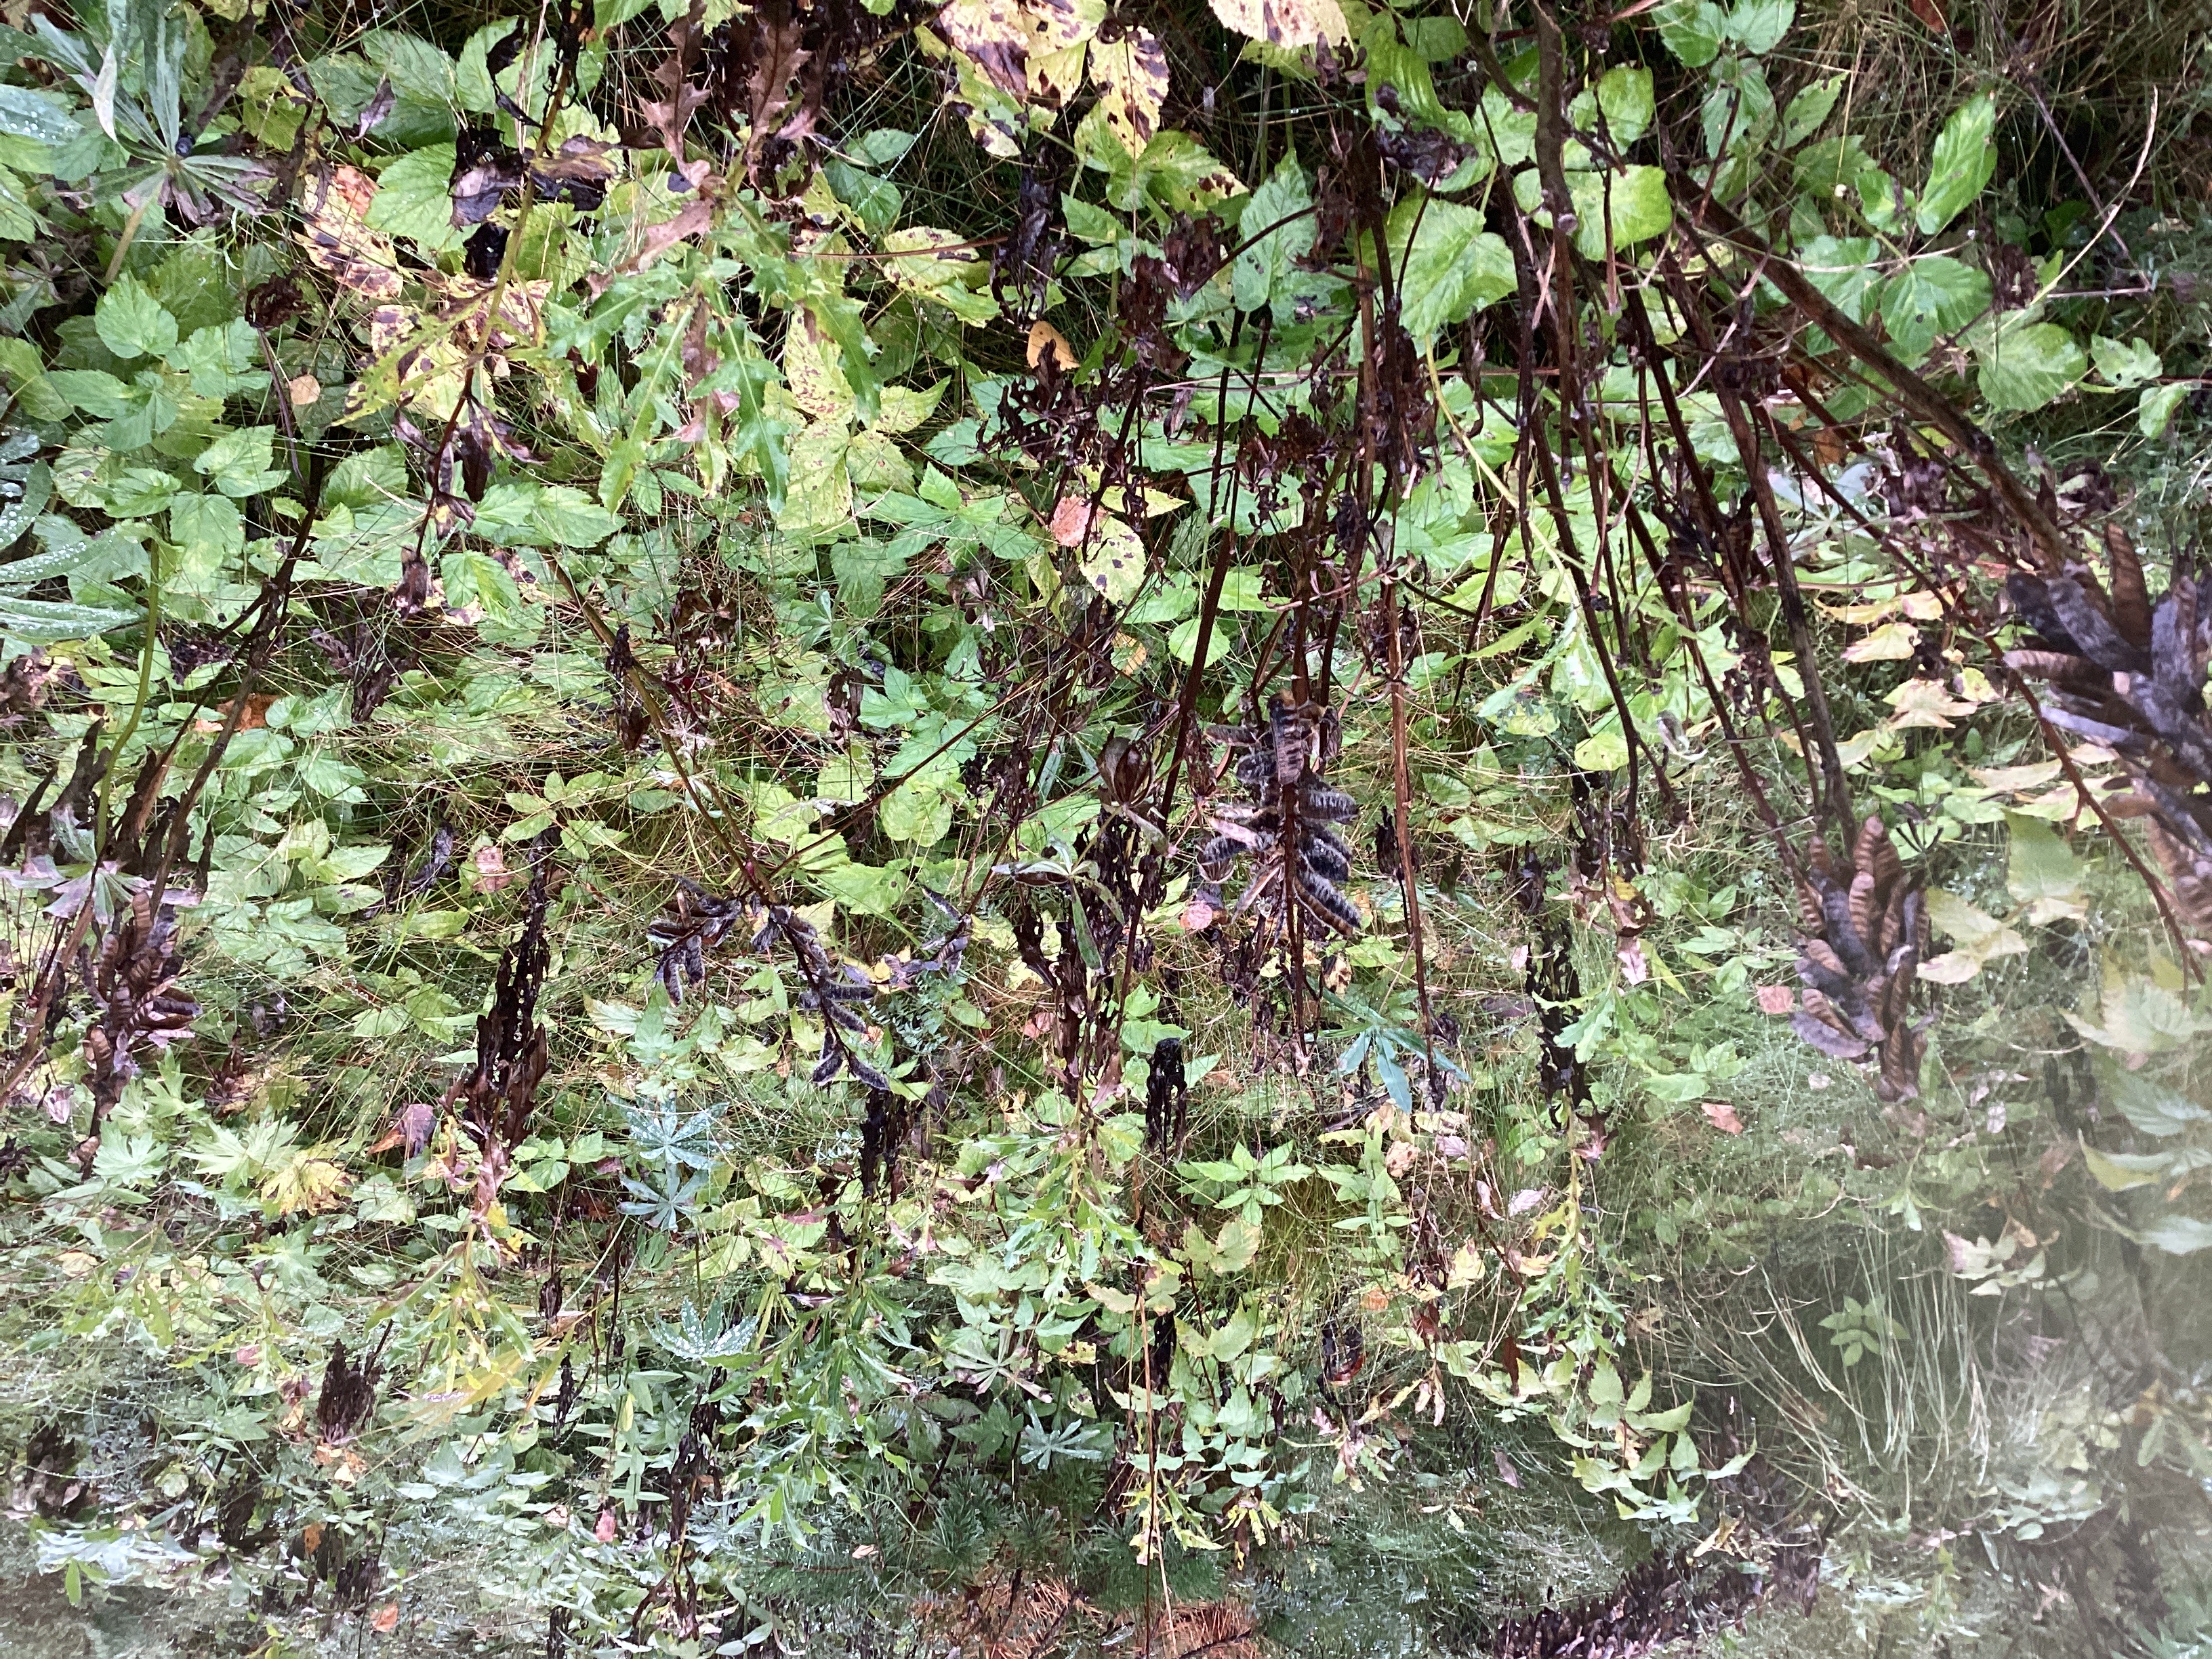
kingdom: Plantae
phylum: Tracheophyta
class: Magnoliopsida
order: Fabales
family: Fabaceae
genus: Lupinus
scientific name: Lupinus polyphyllus
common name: hagelupin
